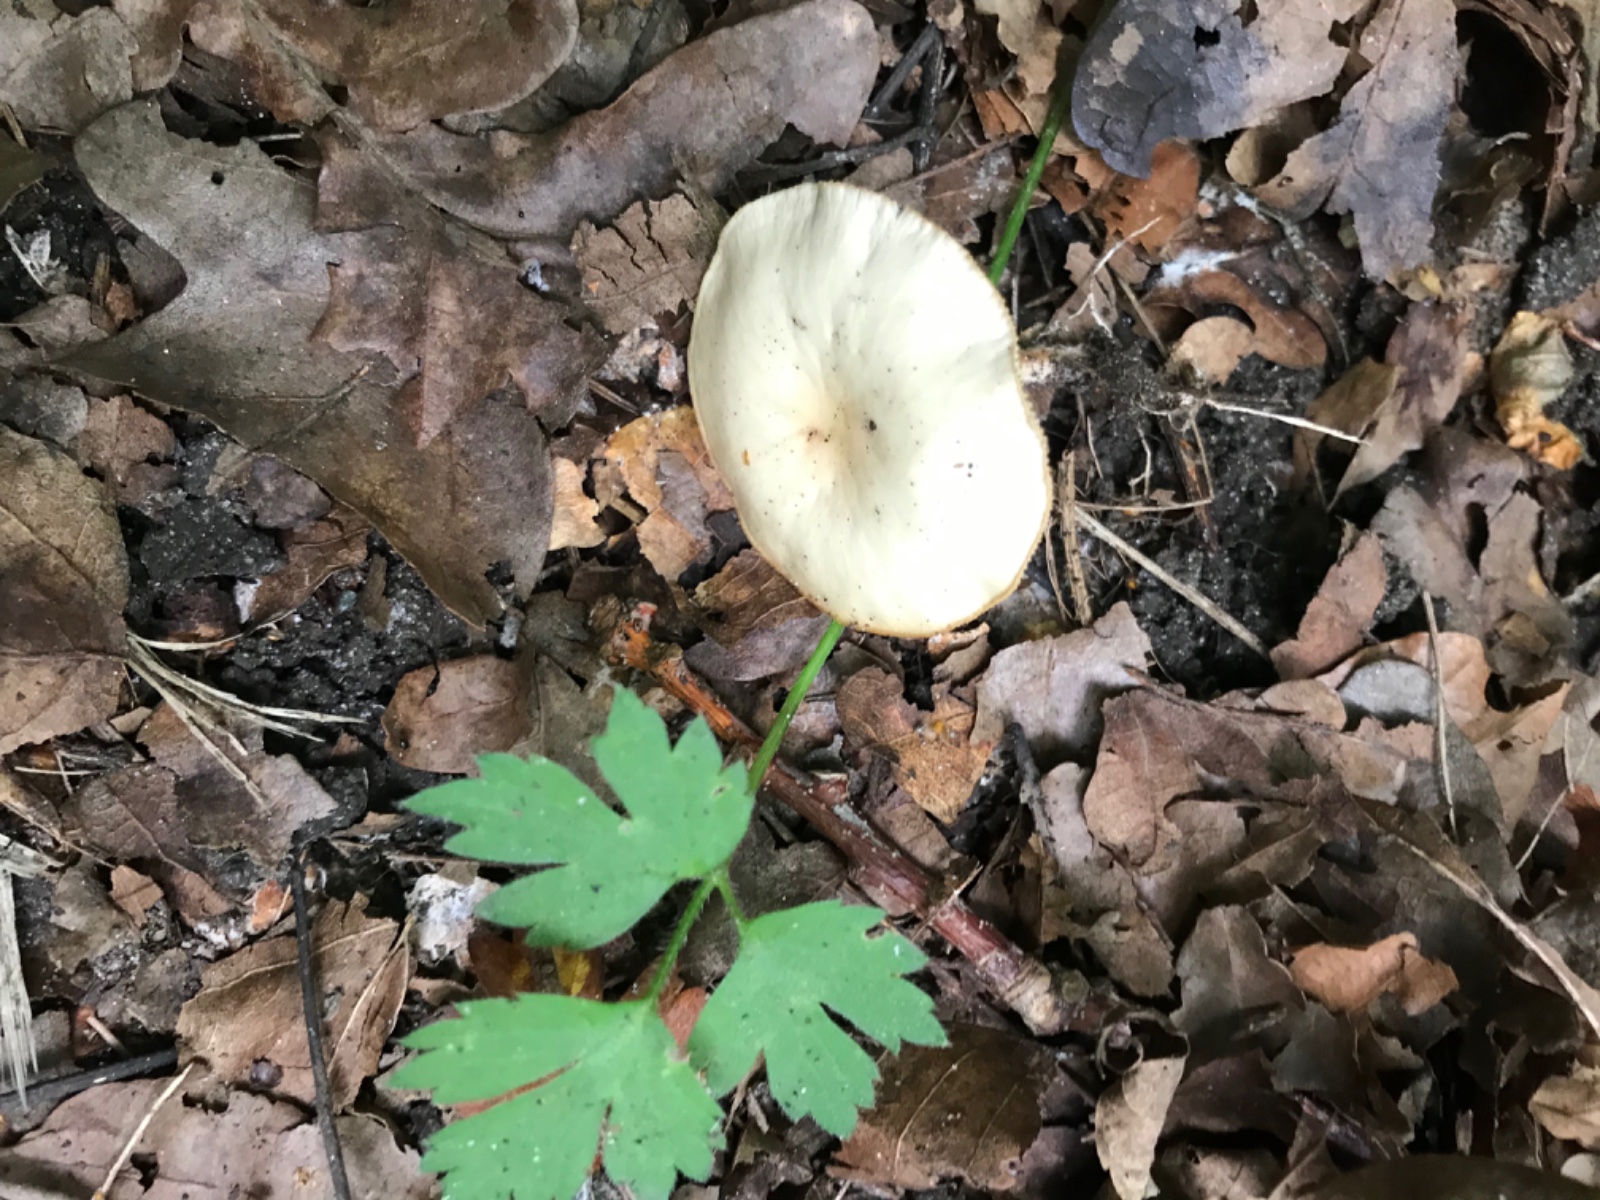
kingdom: Fungi
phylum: Basidiomycota
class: Agaricomycetes
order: Agaricales
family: Omphalotaceae
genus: Gymnopus
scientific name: Gymnopus
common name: fladhat
